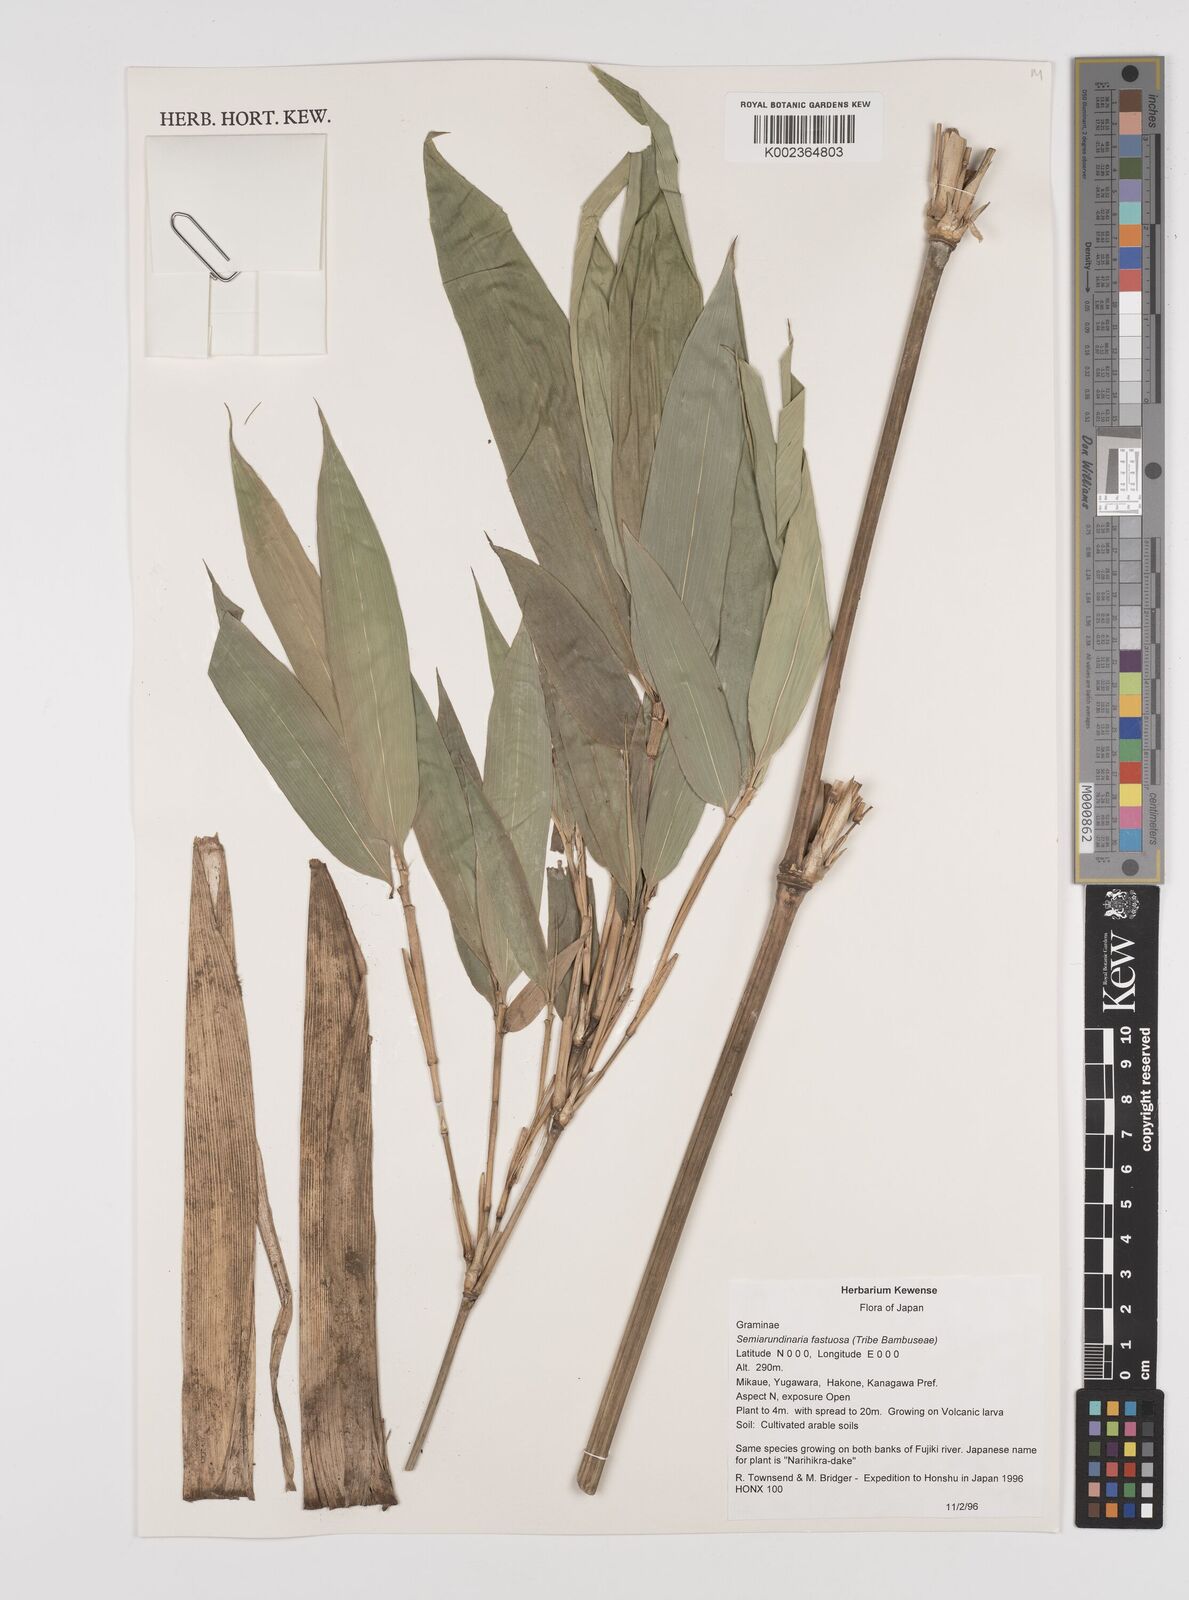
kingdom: Plantae
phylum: Tracheophyta
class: Liliopsida
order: Poales
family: Poaceae
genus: Semiarundinaria
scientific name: Semiarundinaria fastuosa
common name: Narihira bamboo
